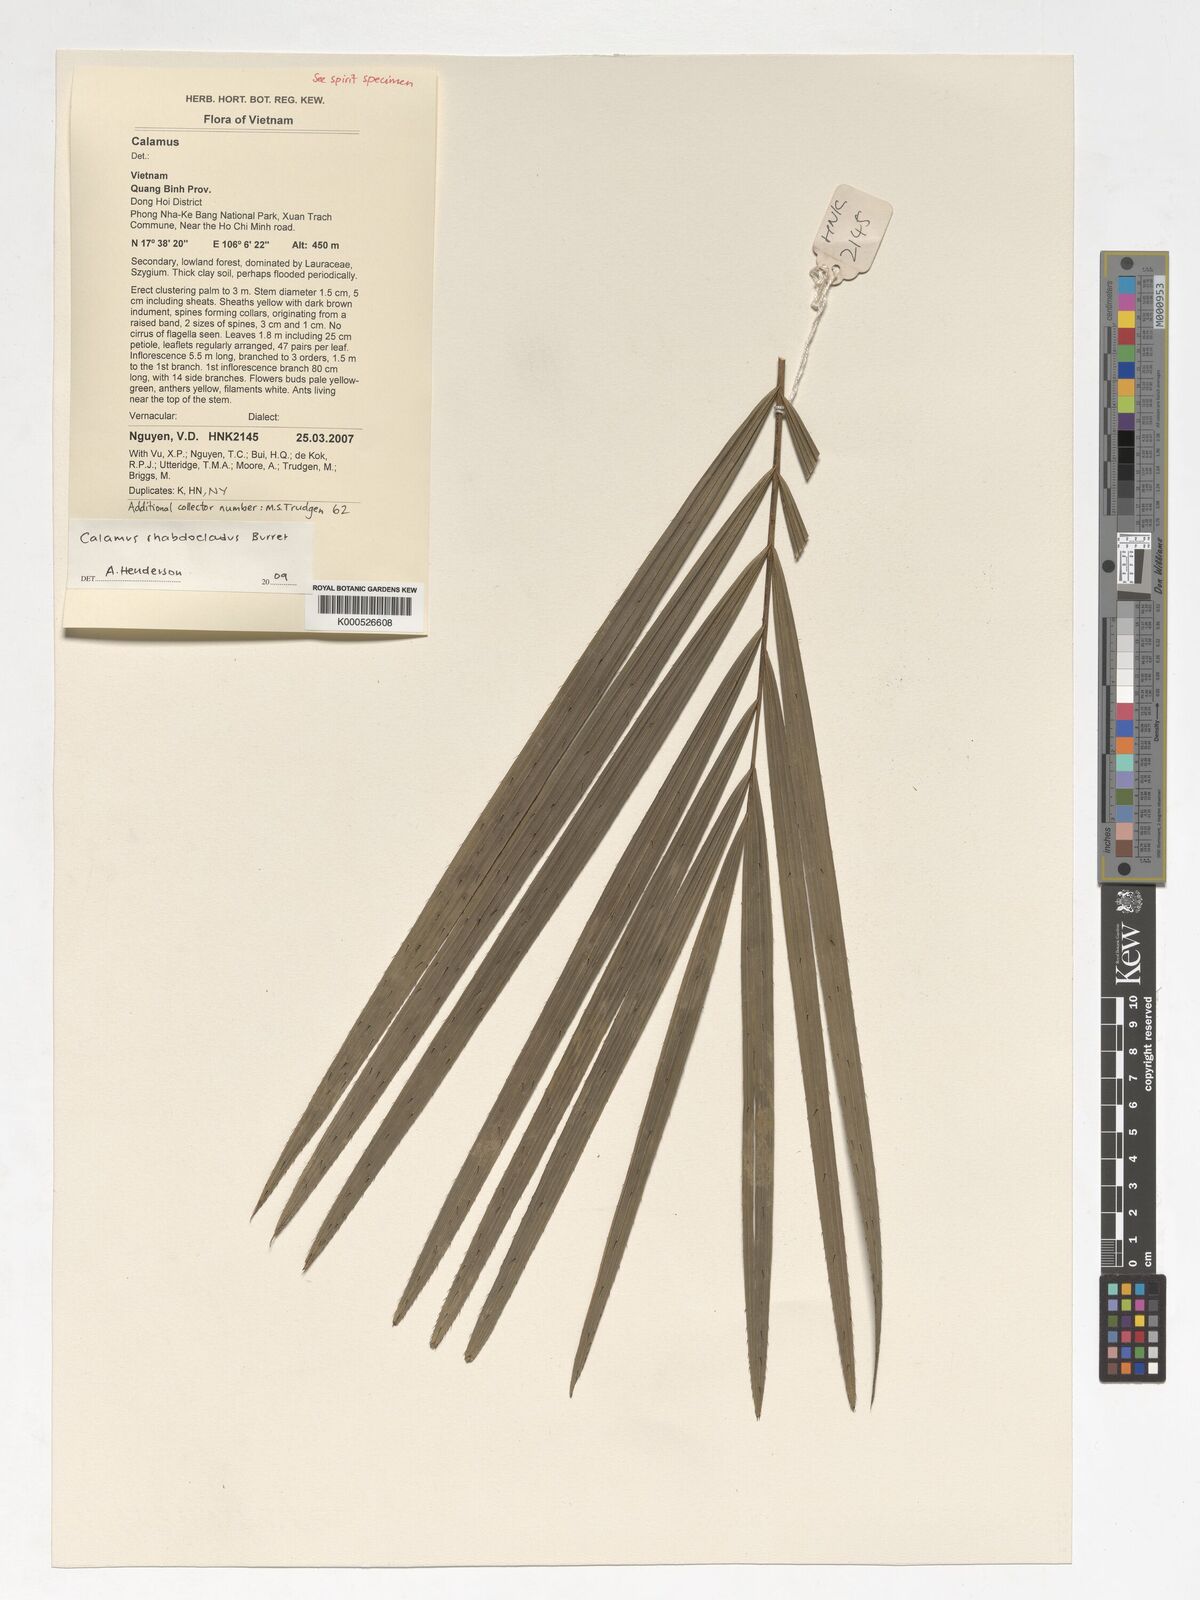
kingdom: Plantae
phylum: Tracheophyta
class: Liliopsida
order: Arecales
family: Arecaceae
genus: Calamus
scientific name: Calamus rhabdocladus
